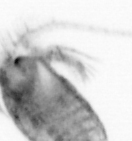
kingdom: Animalia
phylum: Arthropoda
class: Copepoda
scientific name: Copepoda
